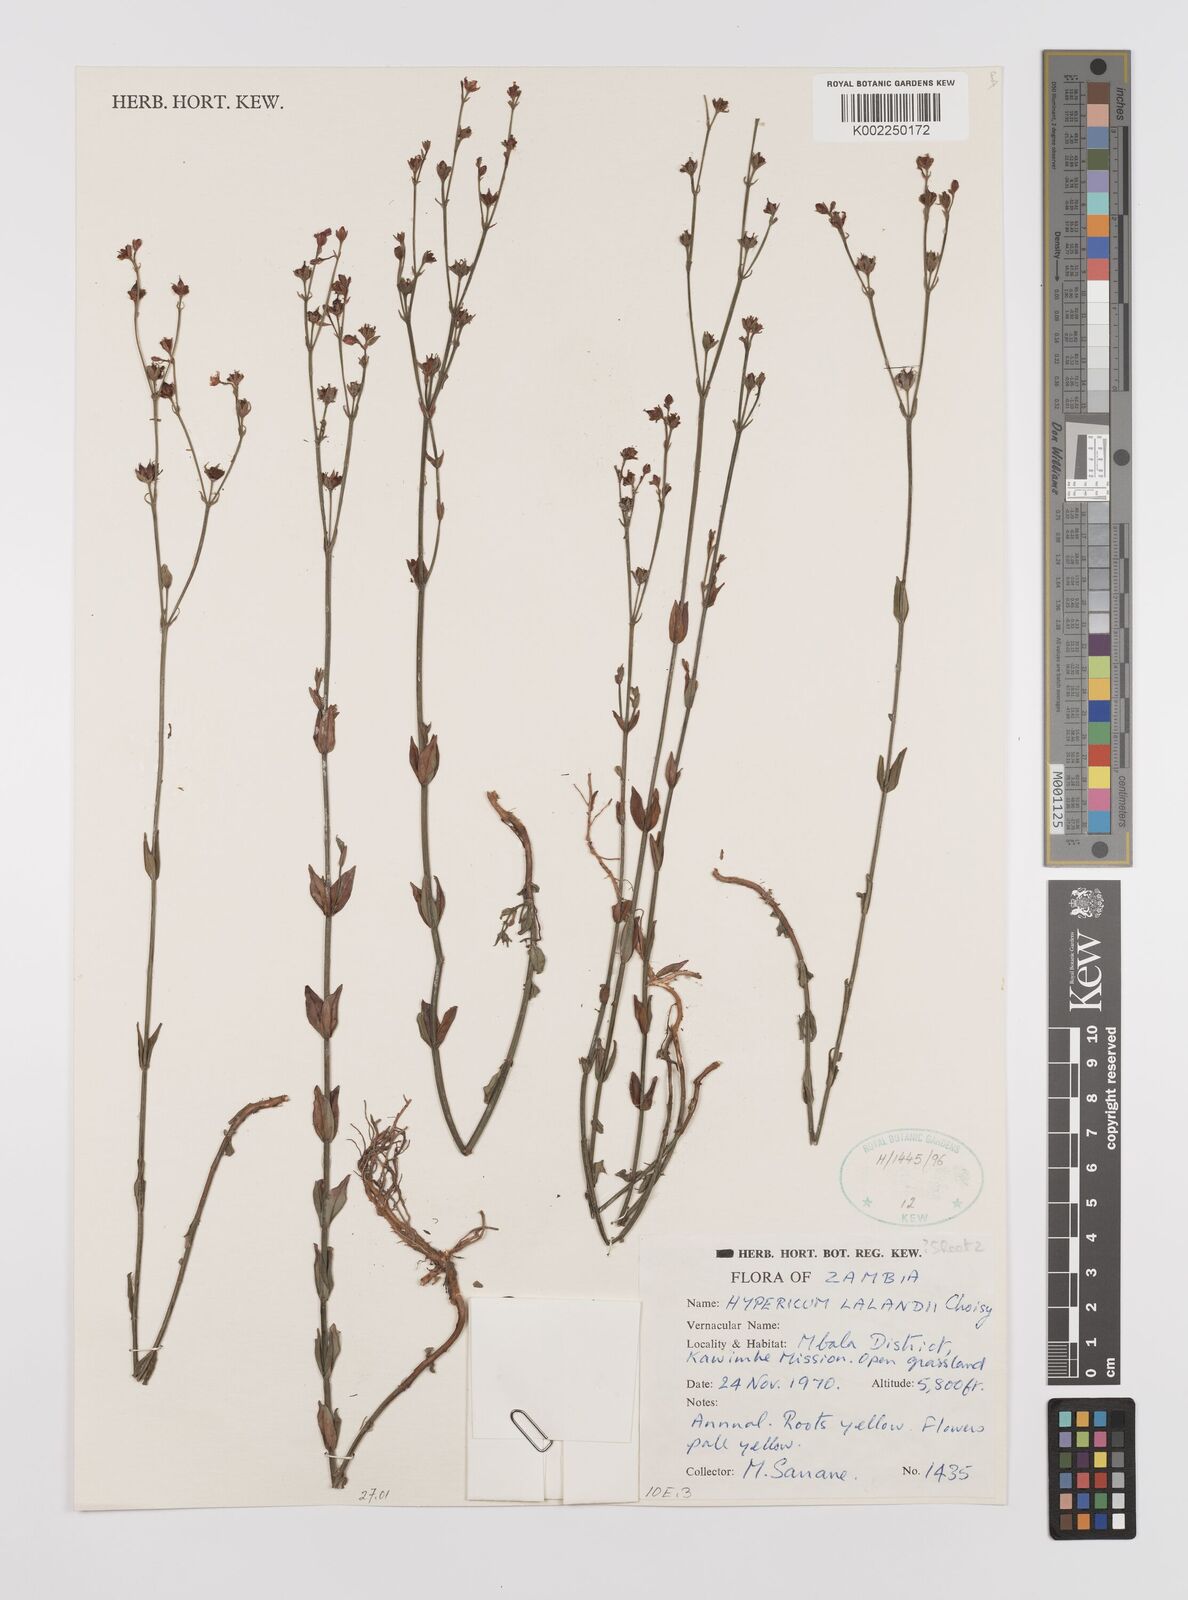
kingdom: Plantae
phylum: Tracheophyta
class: Magnoliopsida
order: Malpighiales
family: Hypericaceae
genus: Hypericum
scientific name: Hypericum lalandii
